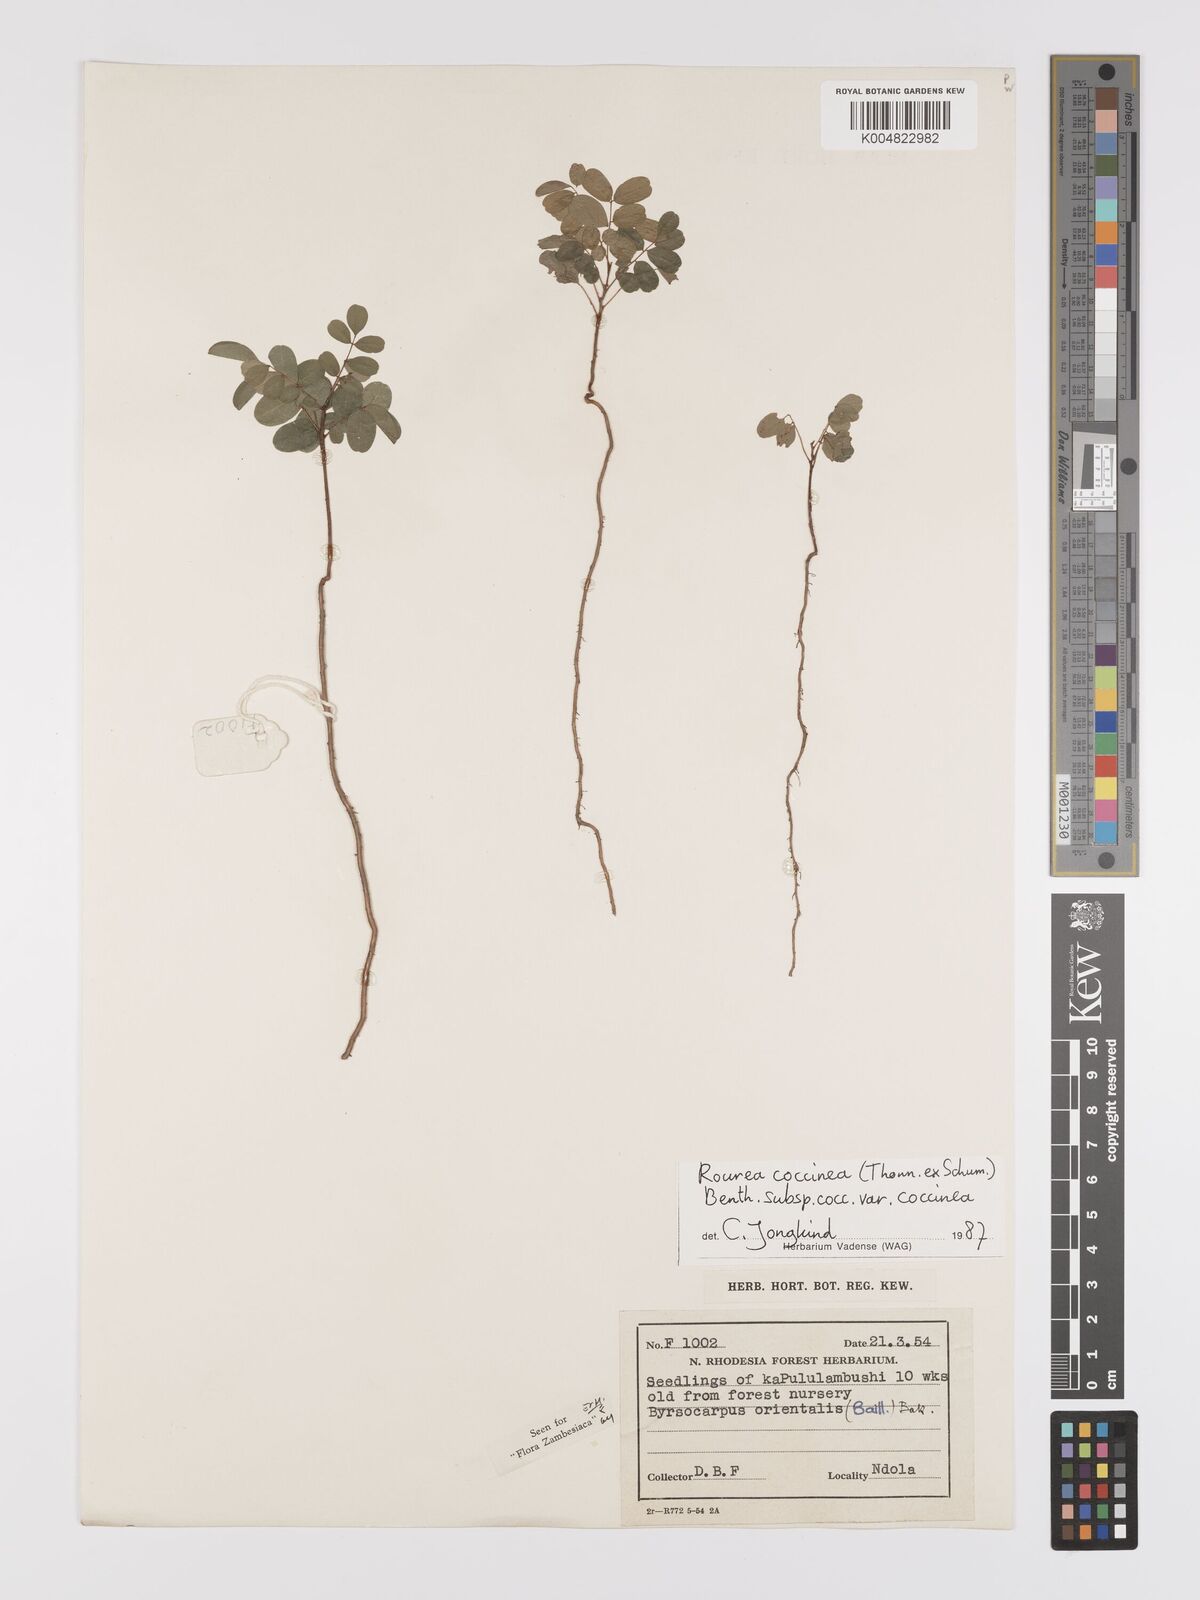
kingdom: Plantae
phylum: Tracheophyta
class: Magnoliopsida
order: Oxalidales
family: Connaraceae
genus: Rourea
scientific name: Rourea orientalis
